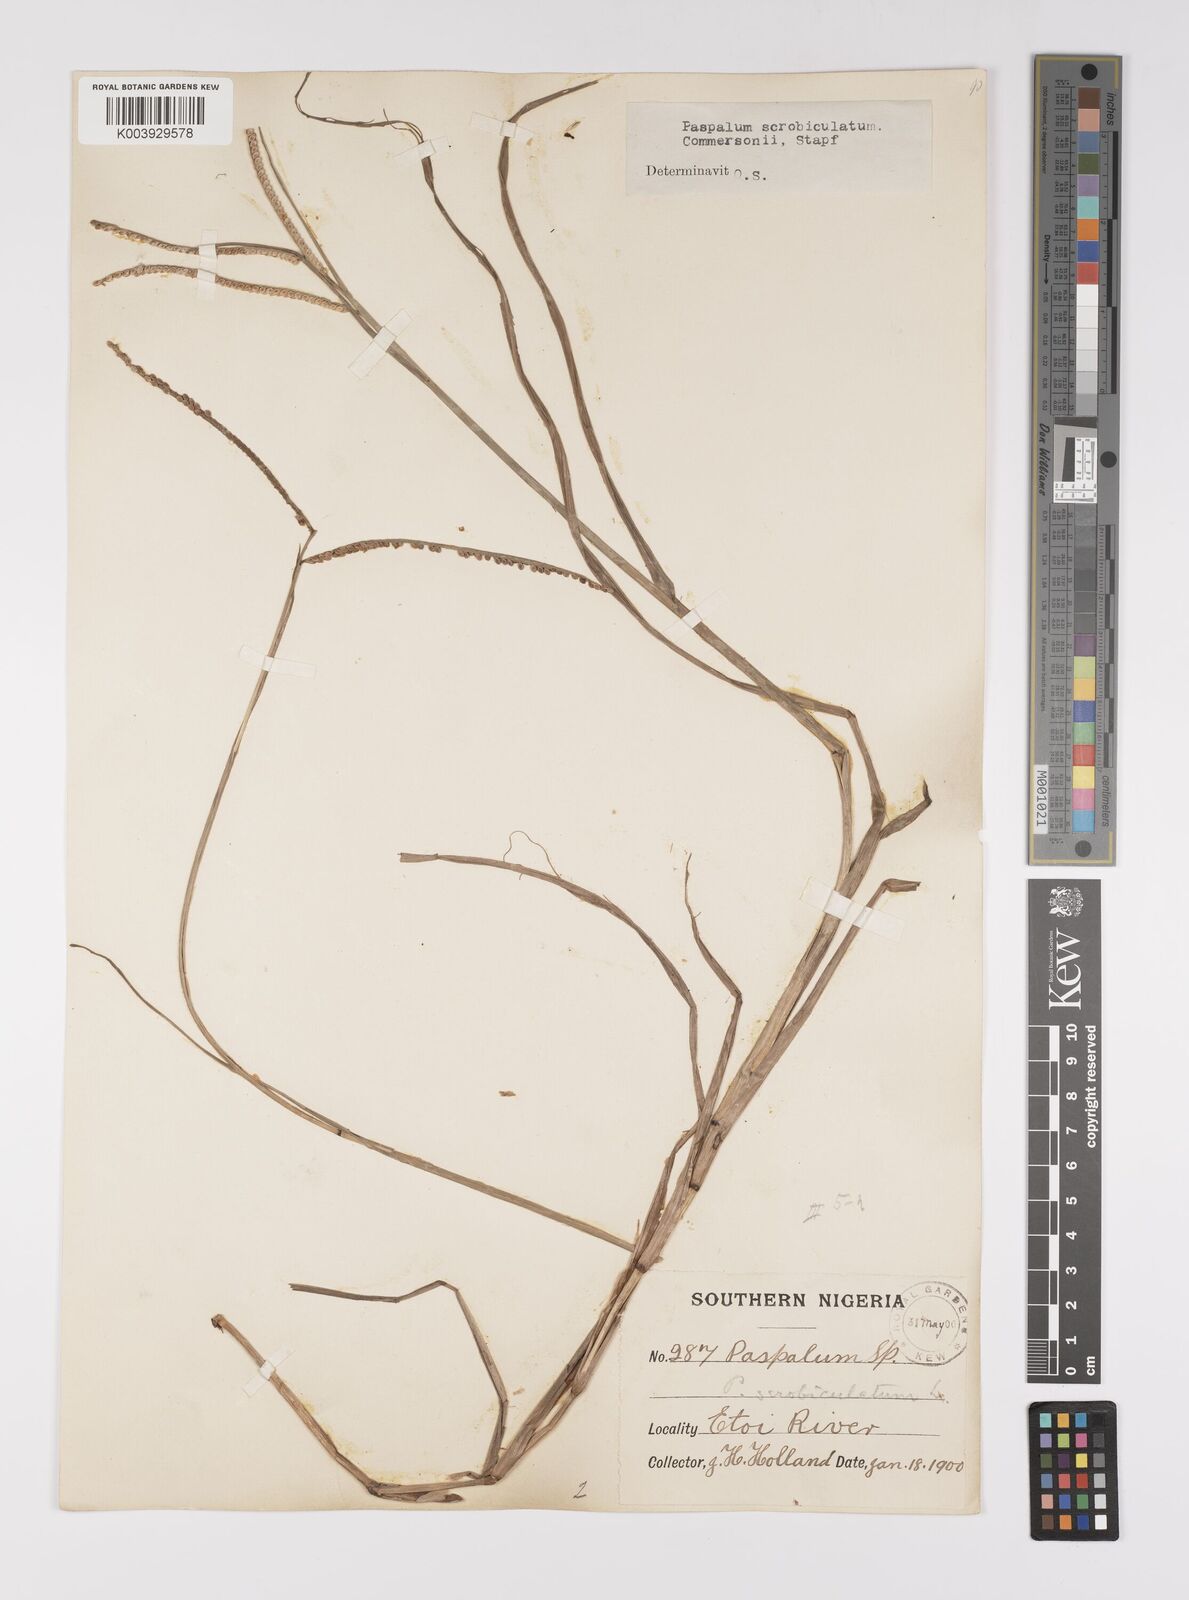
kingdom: Plantae
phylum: Tracheophyta
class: Liliopsida
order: Poales
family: Poaceae
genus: Paspalum
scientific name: Paspalum scrobiculatum
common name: Kodo millet
